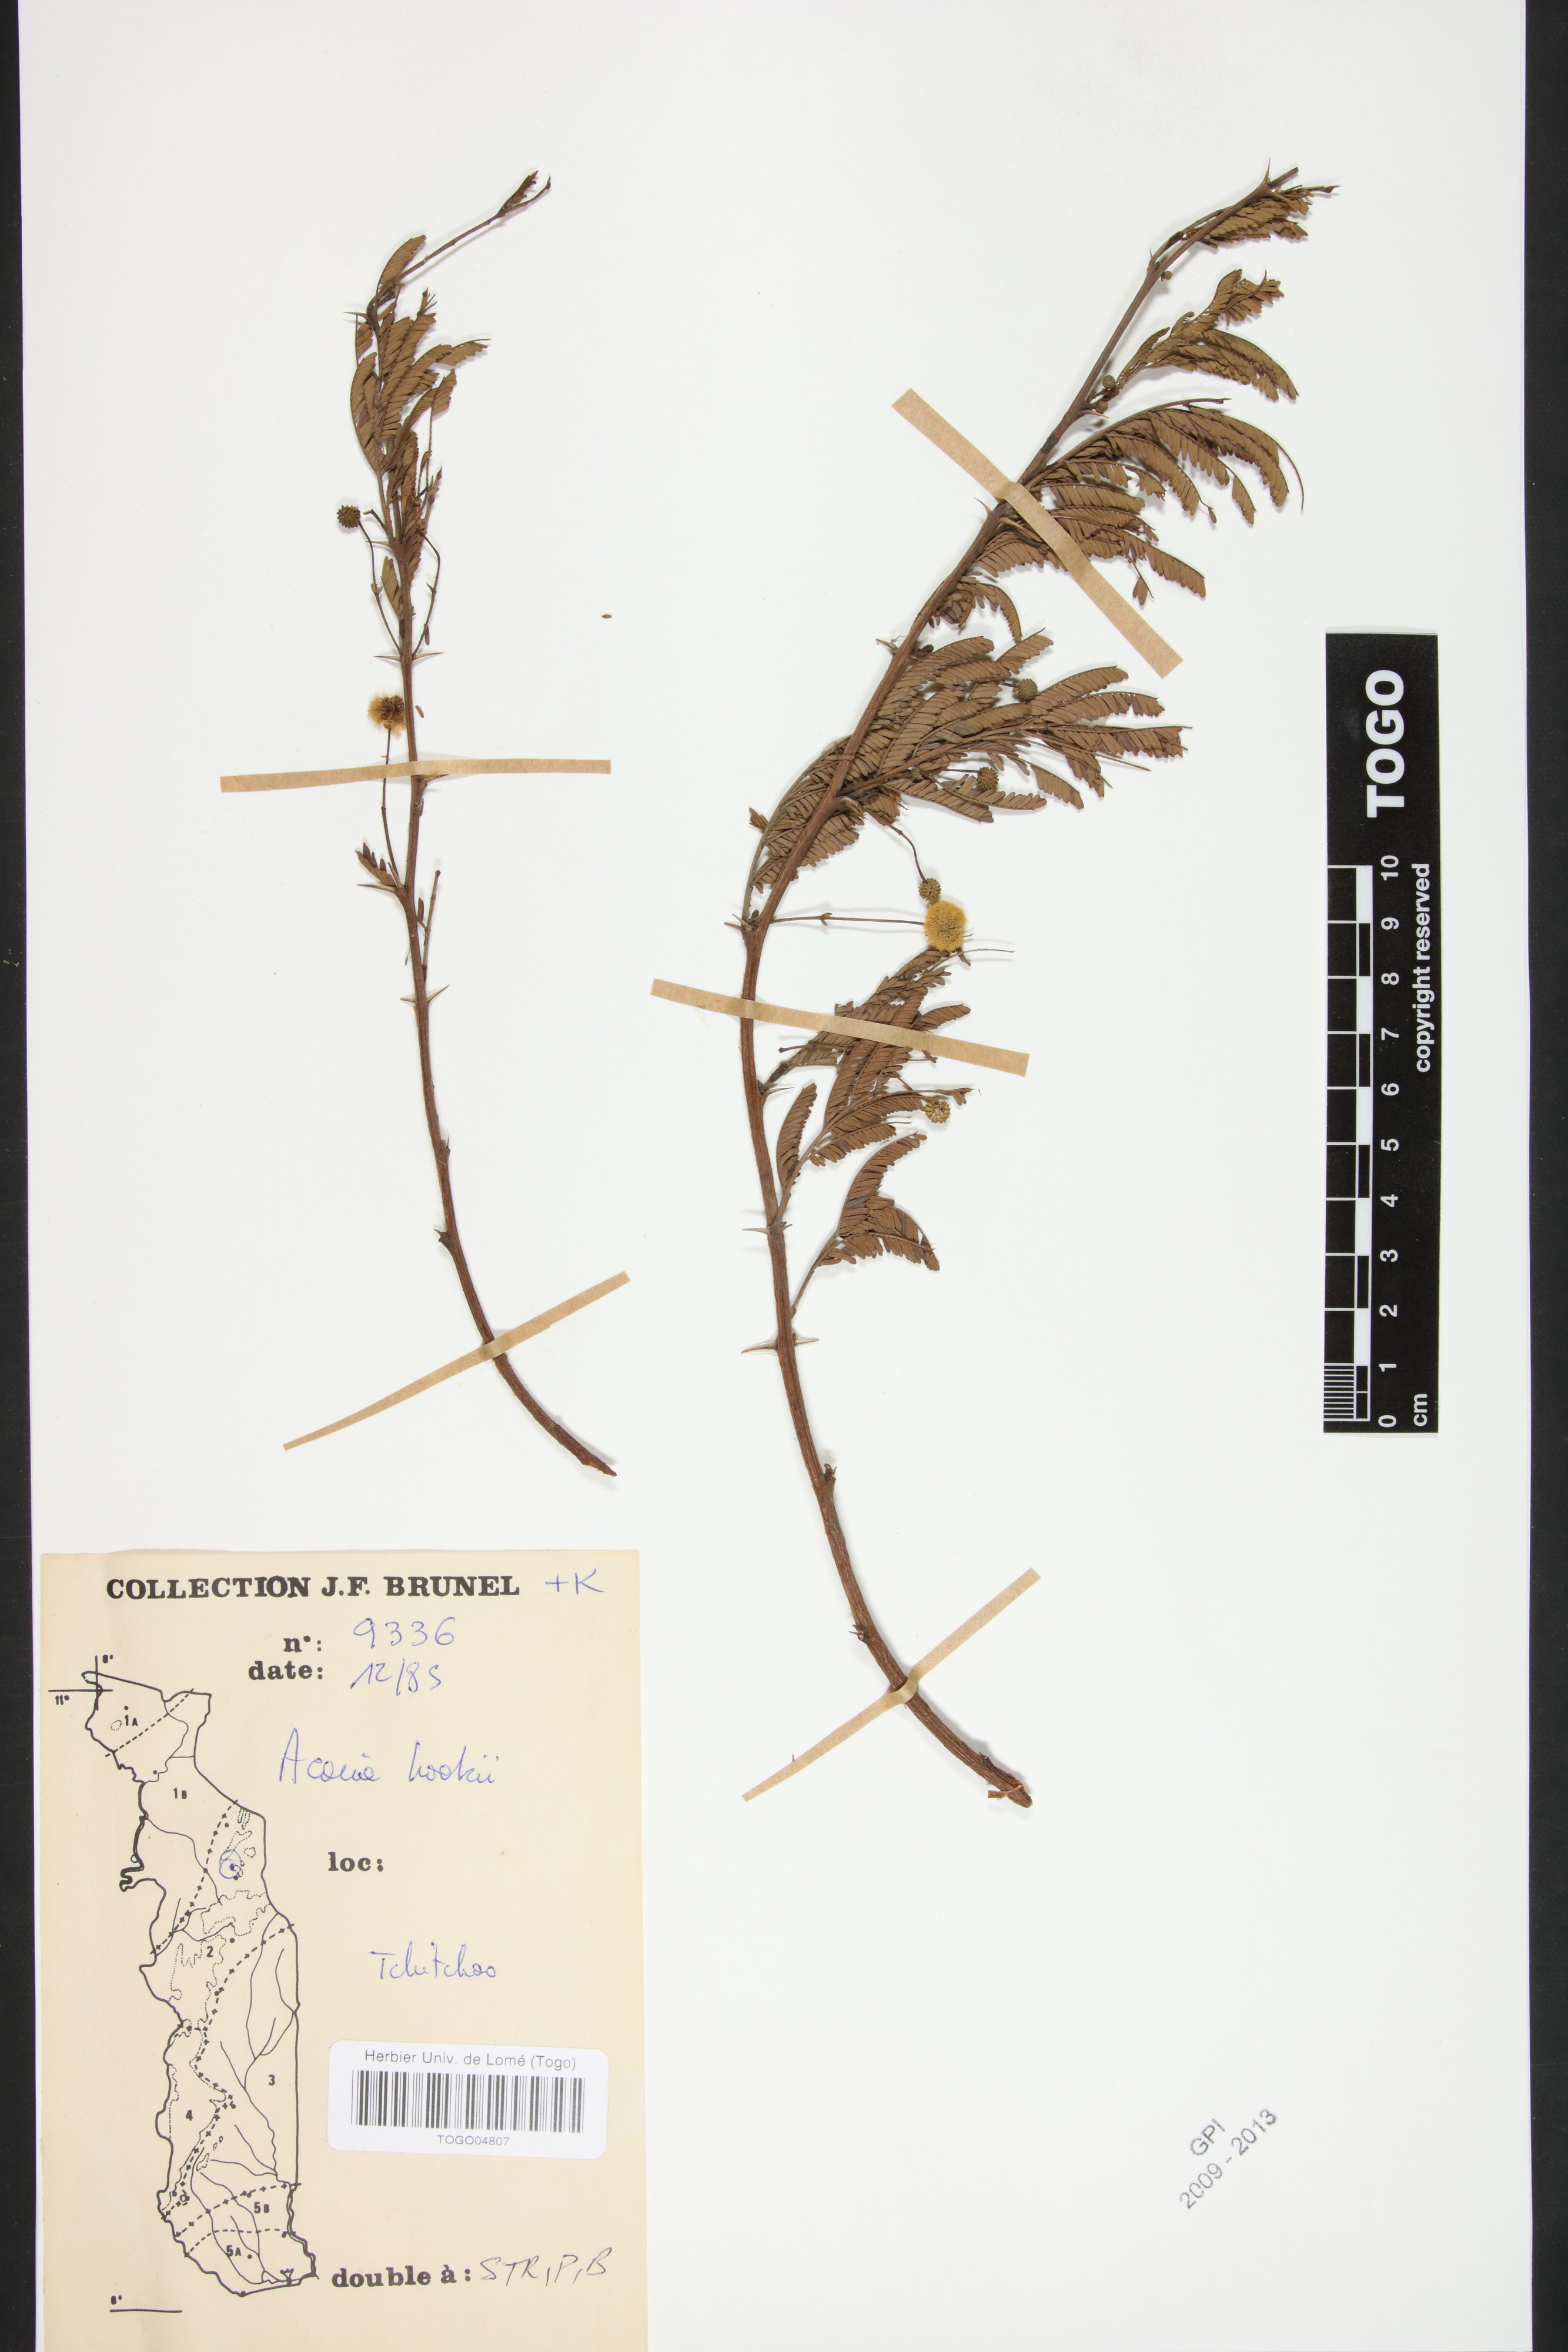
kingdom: Plantae
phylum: Tracheophyta
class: Magnoliopsida
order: Fabales
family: Fabaceae
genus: Vachellia
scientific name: Vachellia hockii
